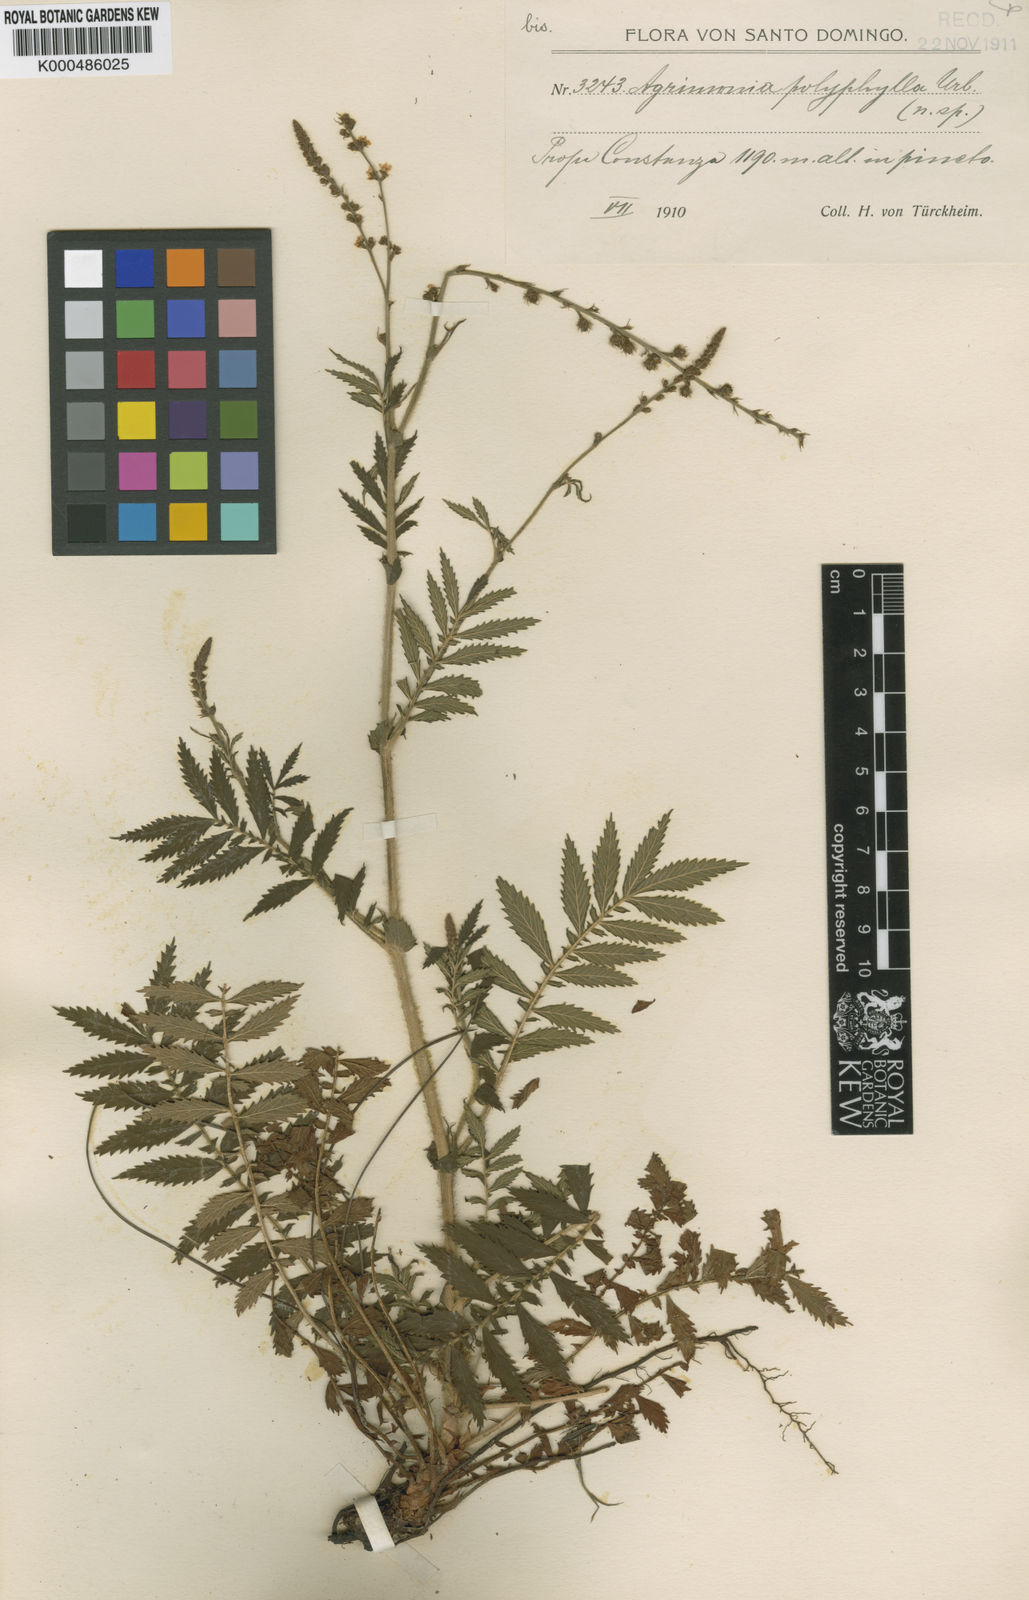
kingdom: Plantae
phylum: Tracheophyta
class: Magnoliopsida
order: Rosales
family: Rosaceae
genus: Agrimonia
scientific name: Agrimonia parviflora
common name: Harvest-lice
